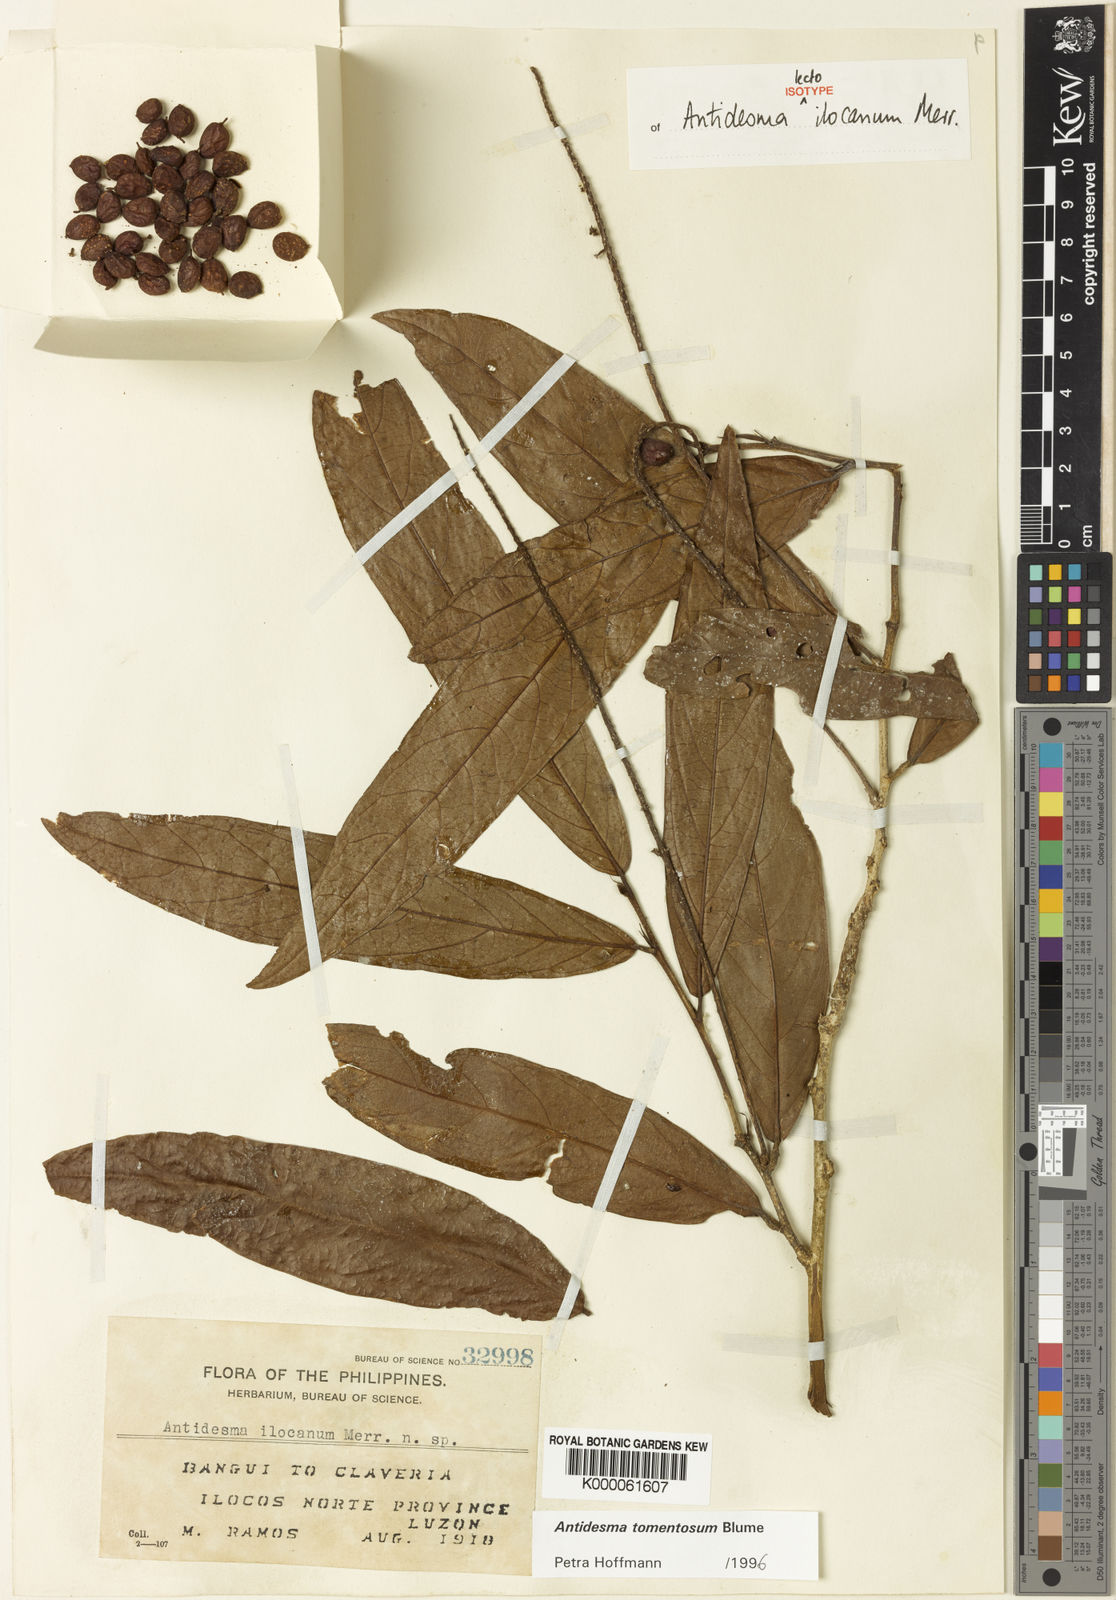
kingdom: Plantae
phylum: Tracheophyta
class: Magnoliopsida
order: Malpighiales
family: Phyllanthaceae
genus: Antidesma
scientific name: Antidesma tomentosum
